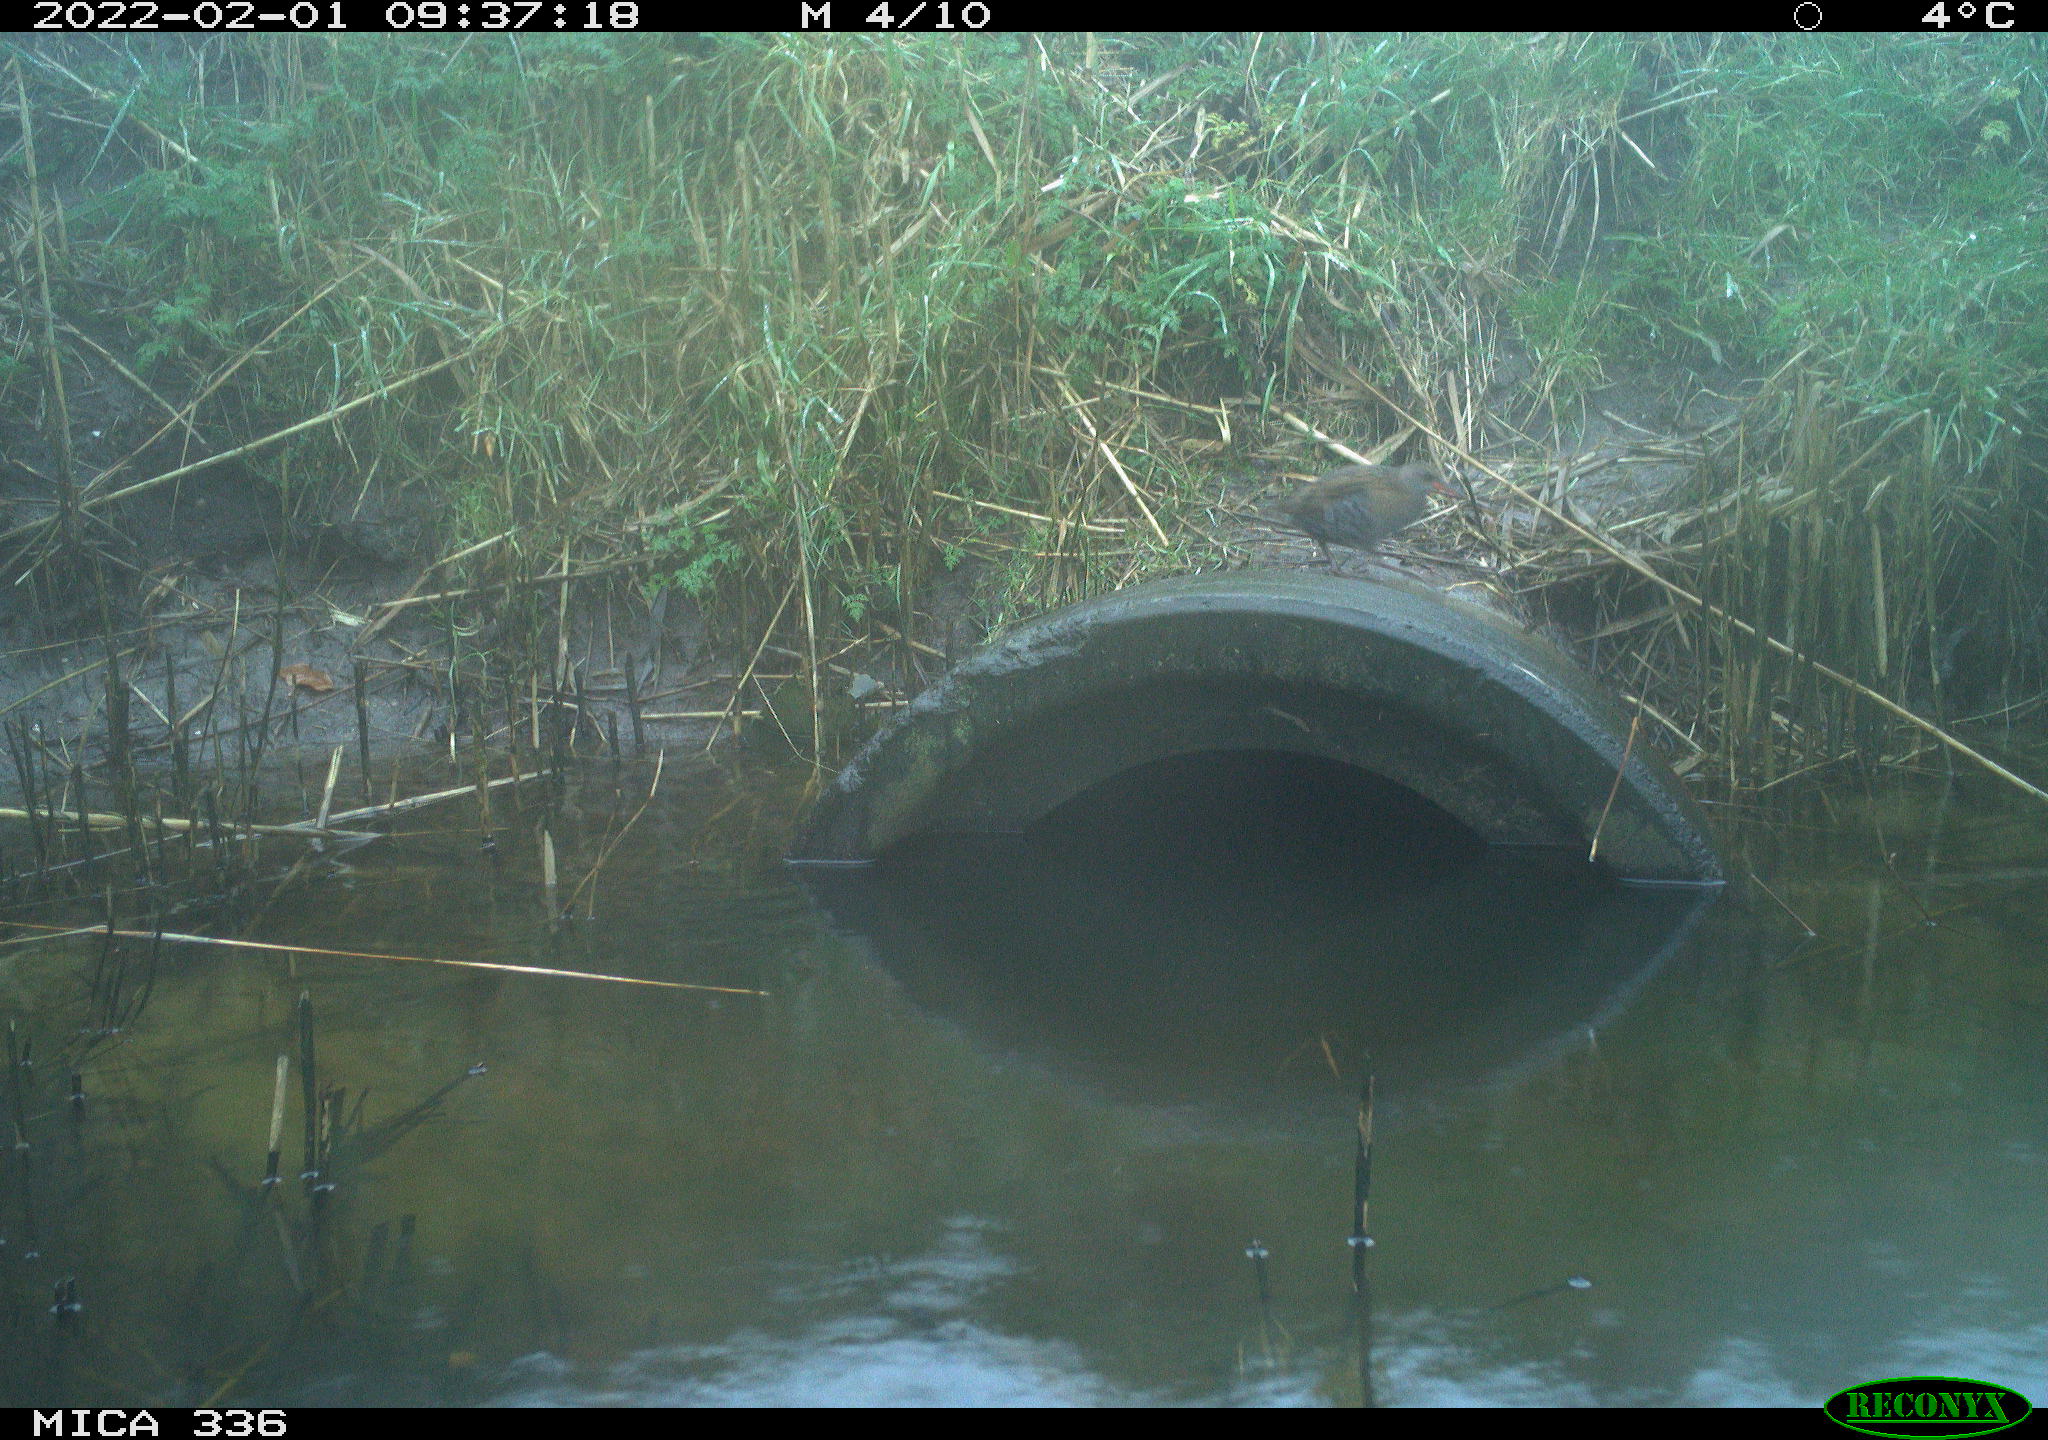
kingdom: Animalia
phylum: Chordata
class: Aves
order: Gruiformes
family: Rallidae
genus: Gallinula
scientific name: Gallinula chloropus
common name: Common moorhen
